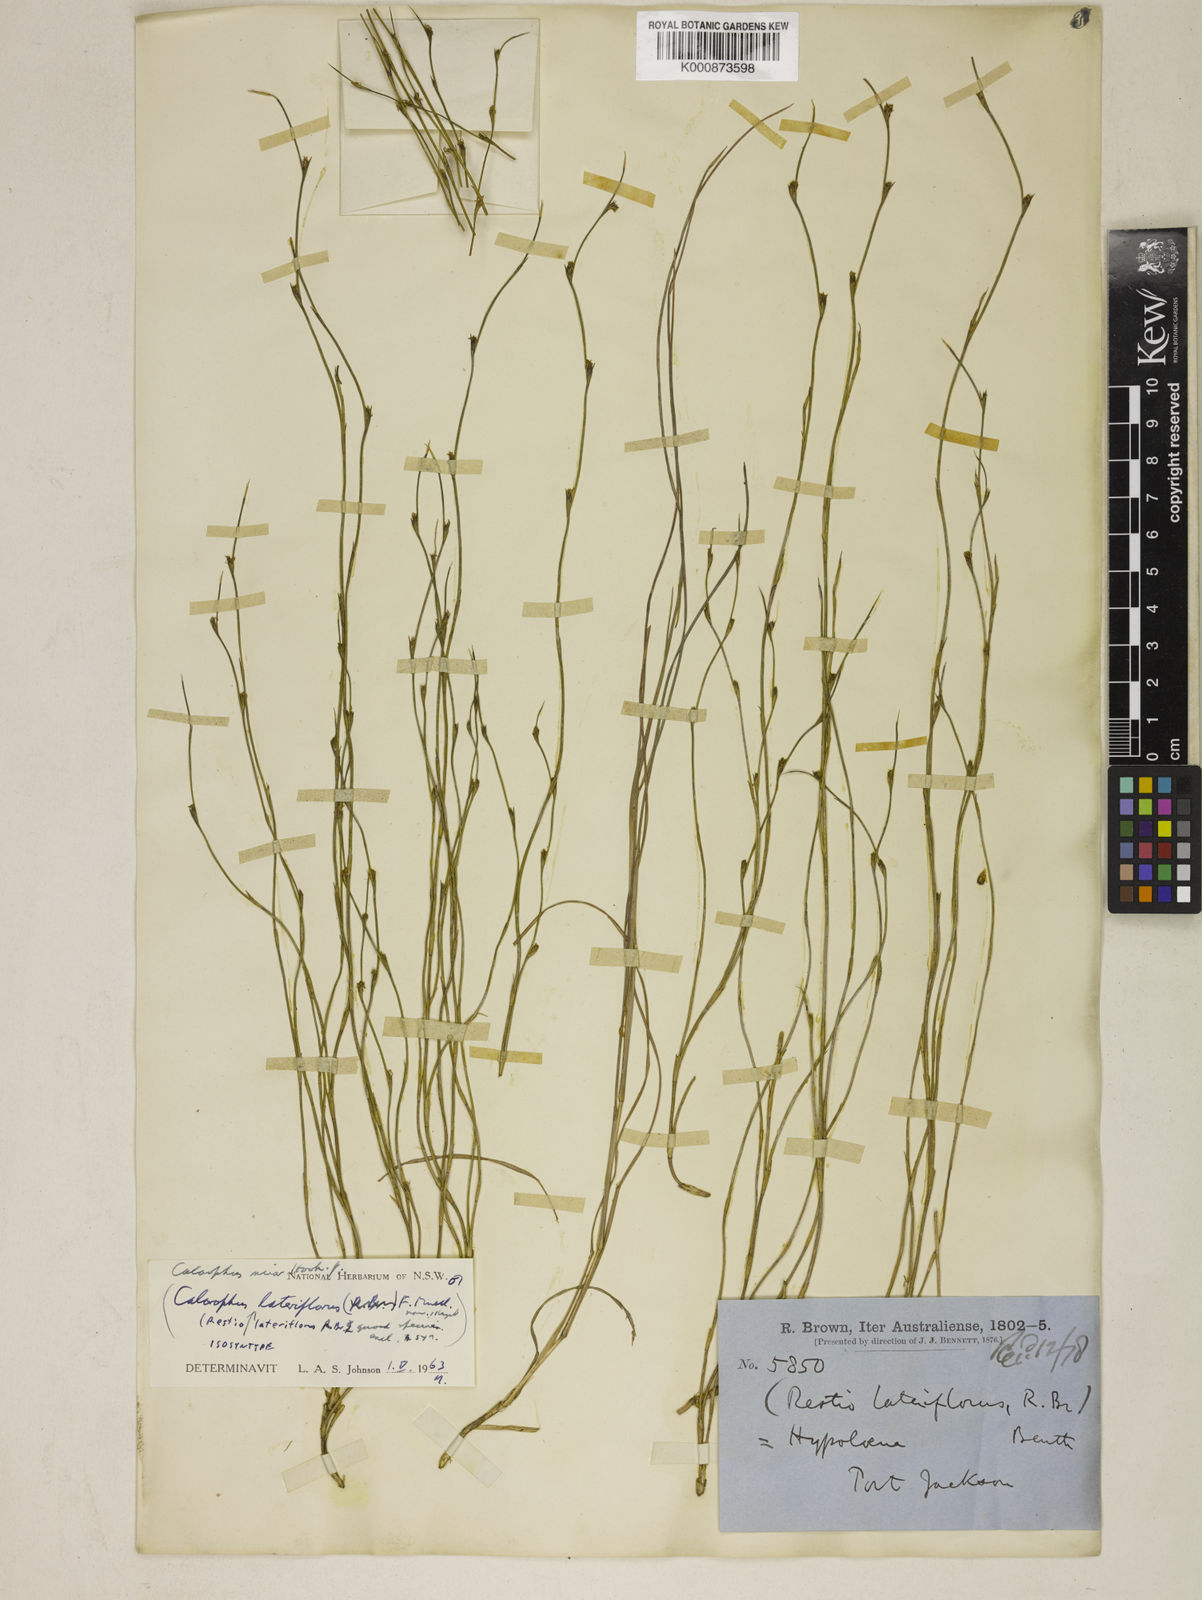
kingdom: Plantae
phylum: Tracheophyta
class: Liliopsida
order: Poales
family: Restionaceae
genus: Empodisma
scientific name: Empodisma minus
